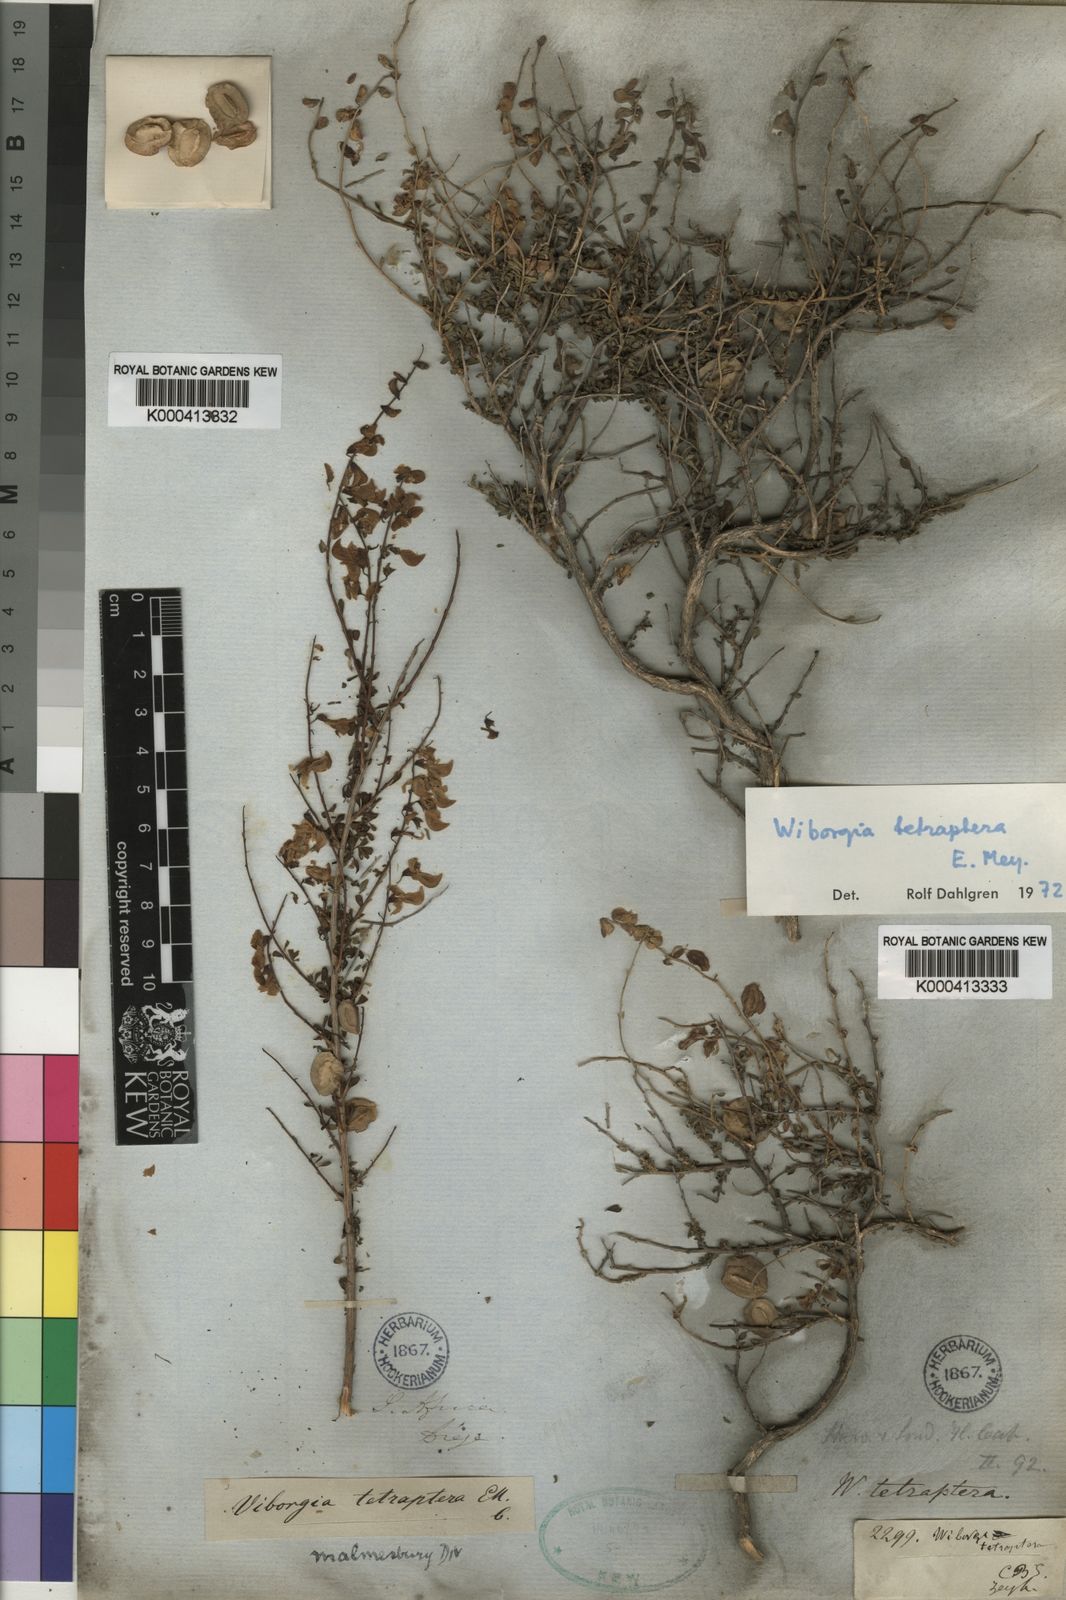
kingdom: Plantae
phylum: Tracheophyta
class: Magnoliopsida
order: Fabales
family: Fabaceae
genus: Wiborgia
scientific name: Wiborgia tetraptera
